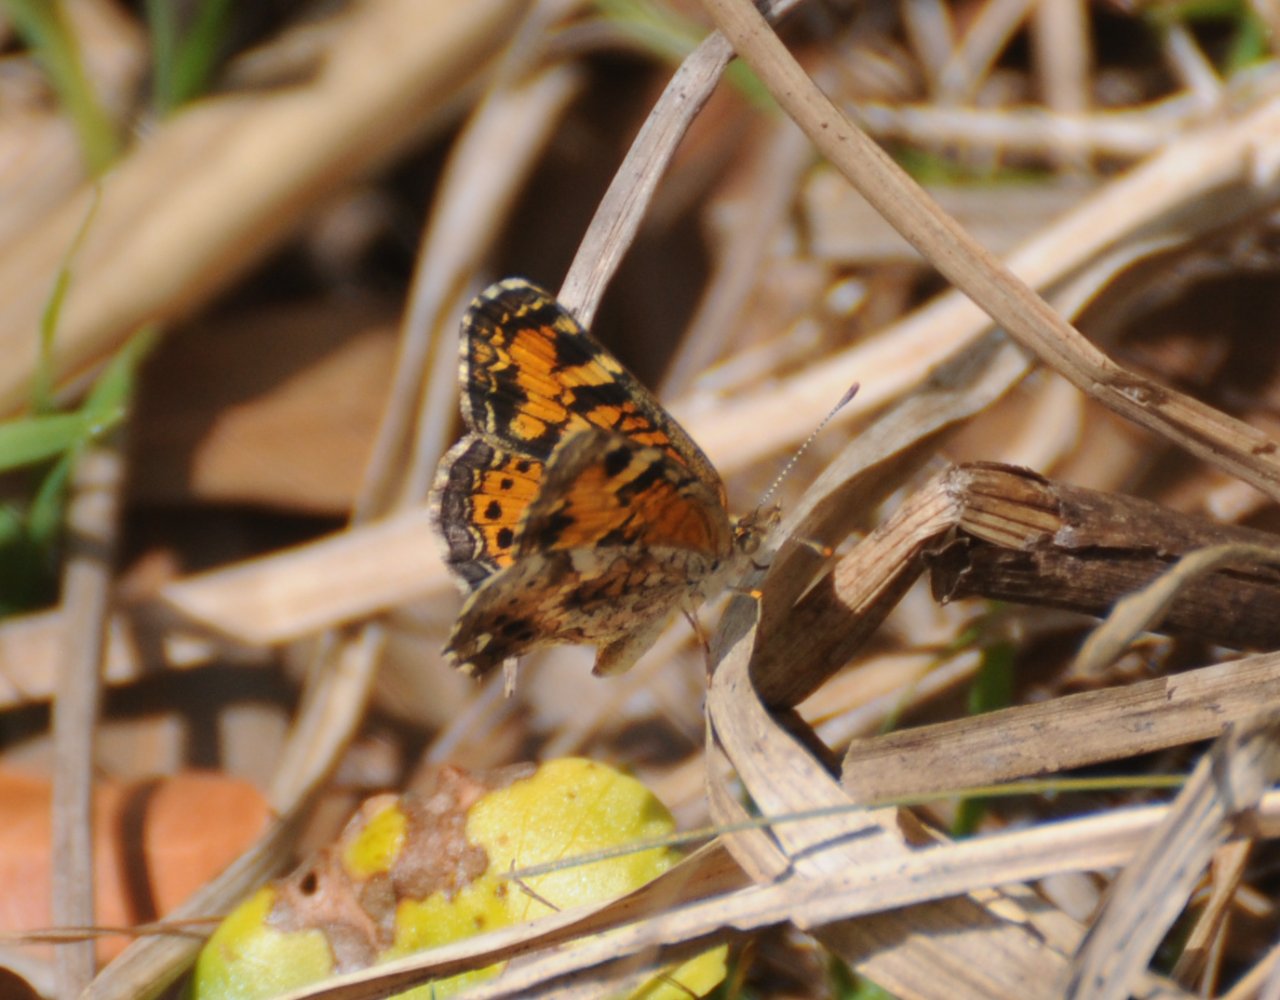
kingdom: Animalia
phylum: Arthropoda
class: Insecta
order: Lepidoptera
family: Nymphalidae
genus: Phyciodes
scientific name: Phyciodes tharos
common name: Pearl Crescent
